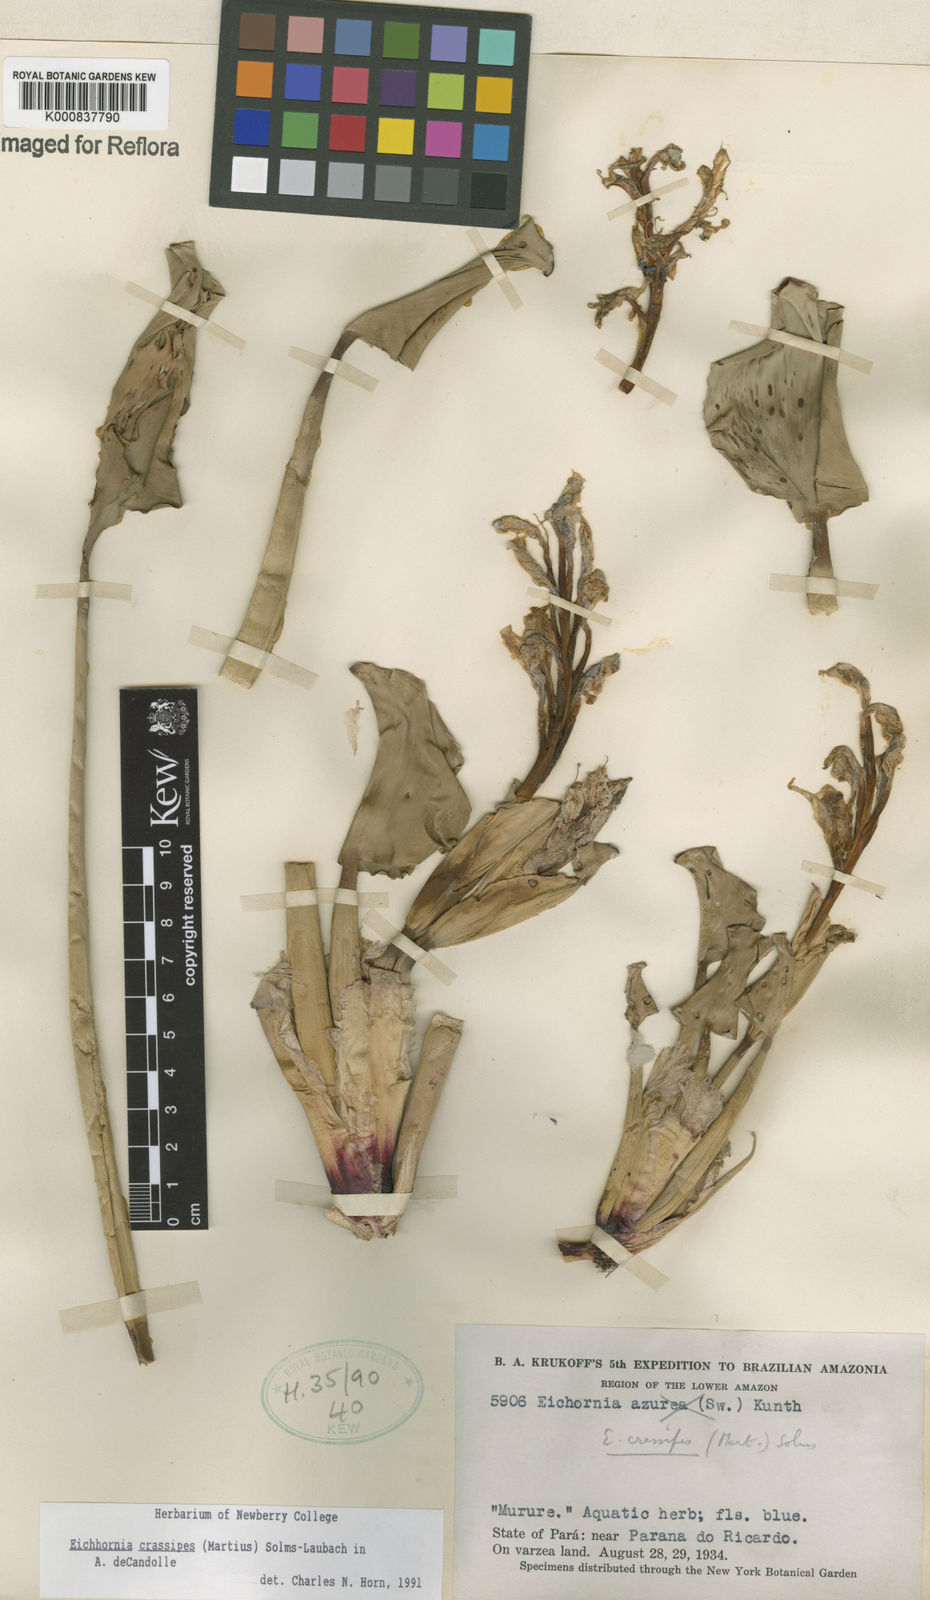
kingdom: Plantae
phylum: Tracheophyta
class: Liliopsida
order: Commelinales
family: Pontederiaceae
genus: Pontederia
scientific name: Pontederia crassipes
